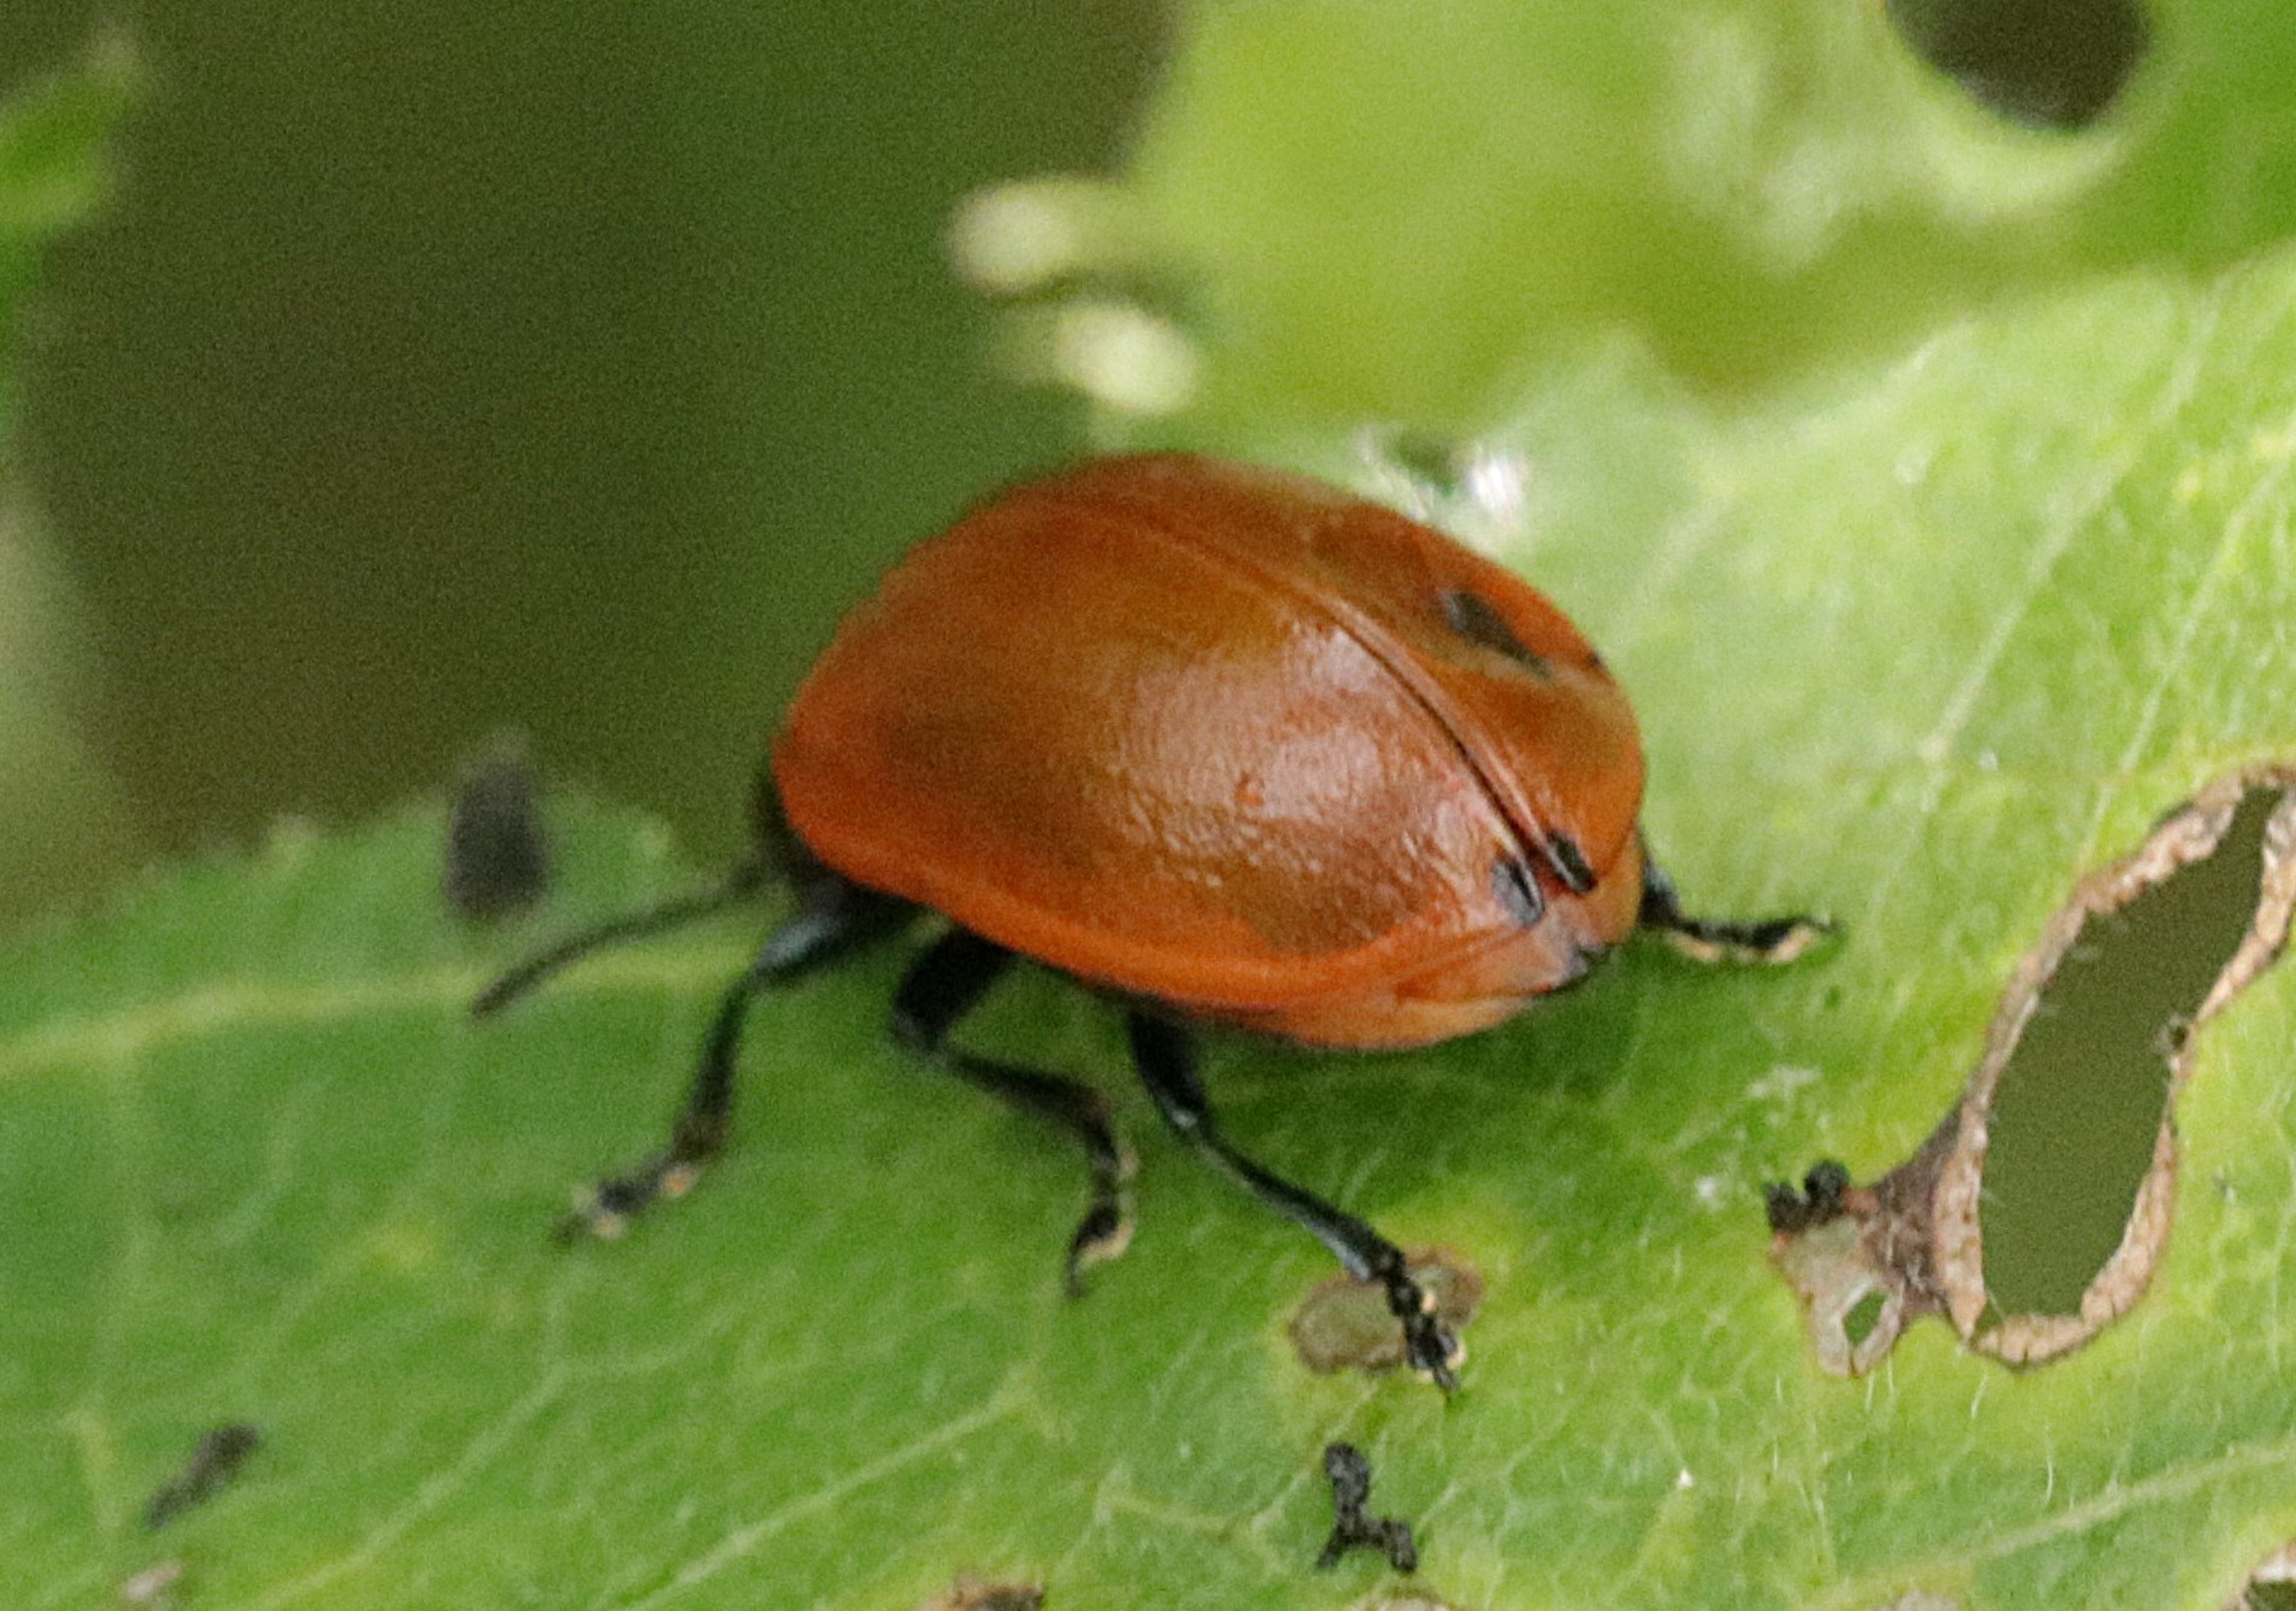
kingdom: Animalia
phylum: Arthropoda
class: Insecta
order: Coleoptera
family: Chrysomelidae
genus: Chrysomela
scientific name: Chrysomela populi
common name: Poppelbladbille
